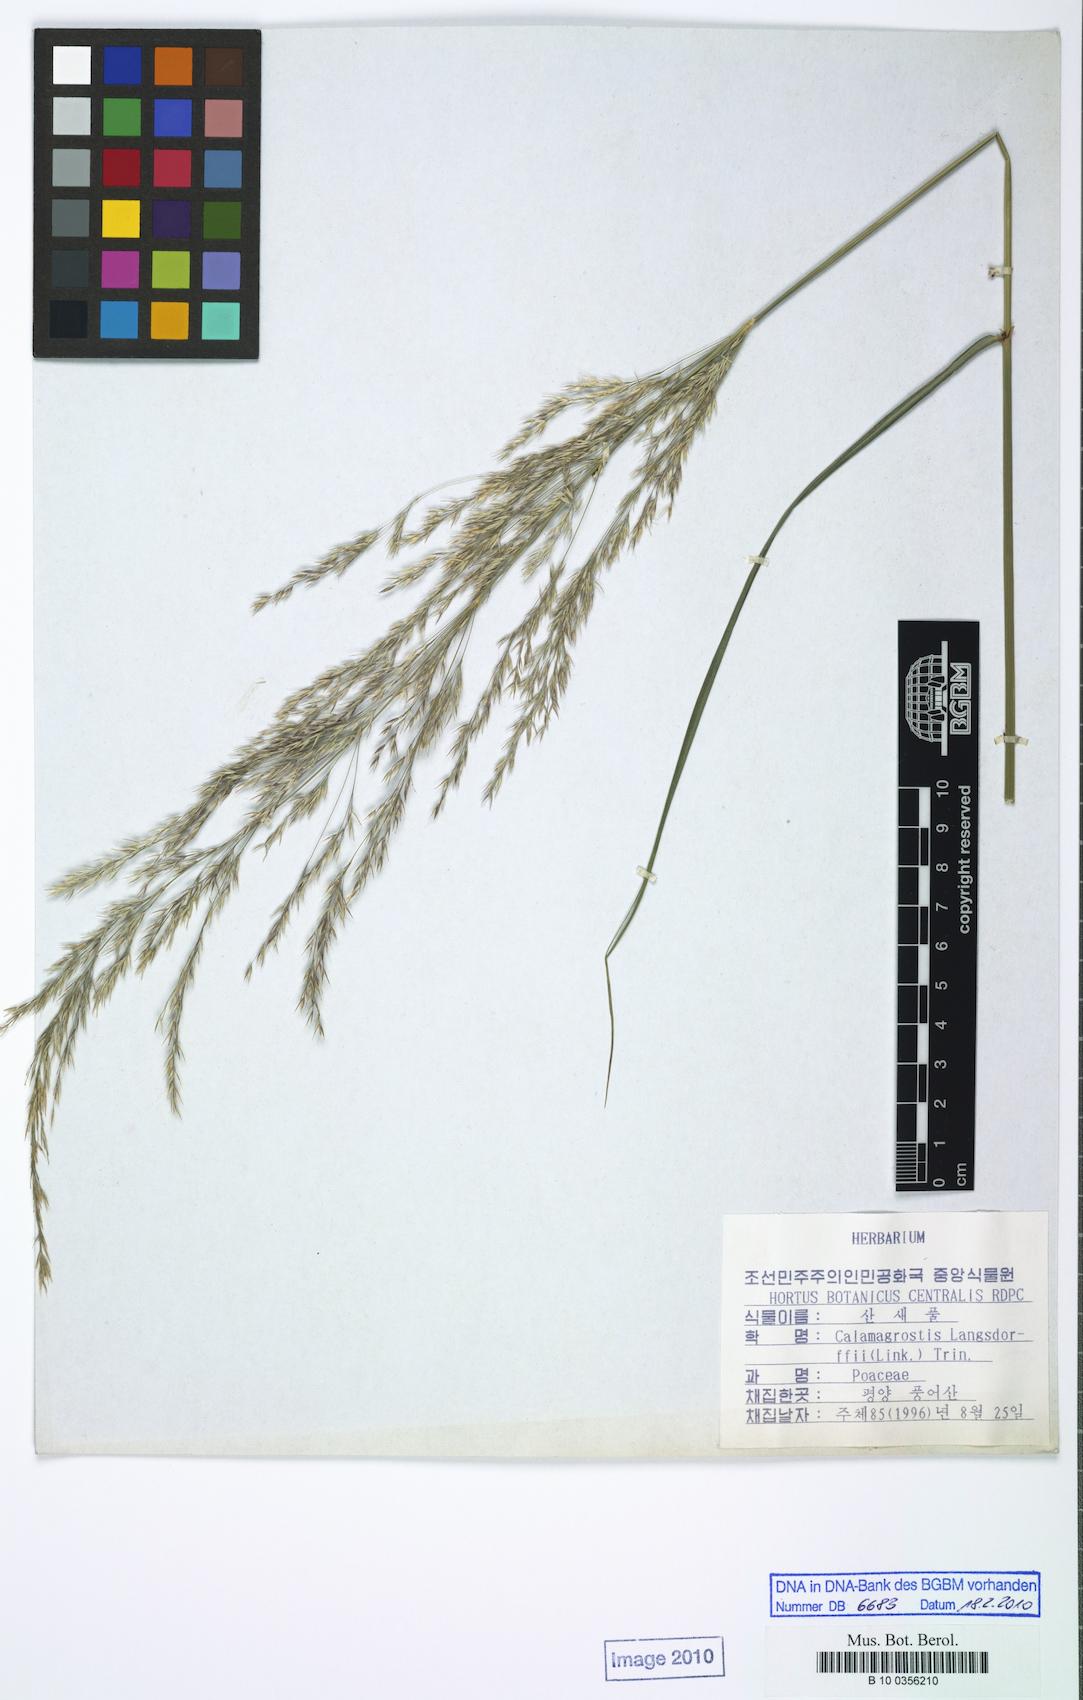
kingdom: Plantae
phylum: Tracheophyta
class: Liliopsida
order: Poales
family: Poaceae
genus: Calamagrostis
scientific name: Calamagrostis purpurea
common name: Scandinavian small-reed
